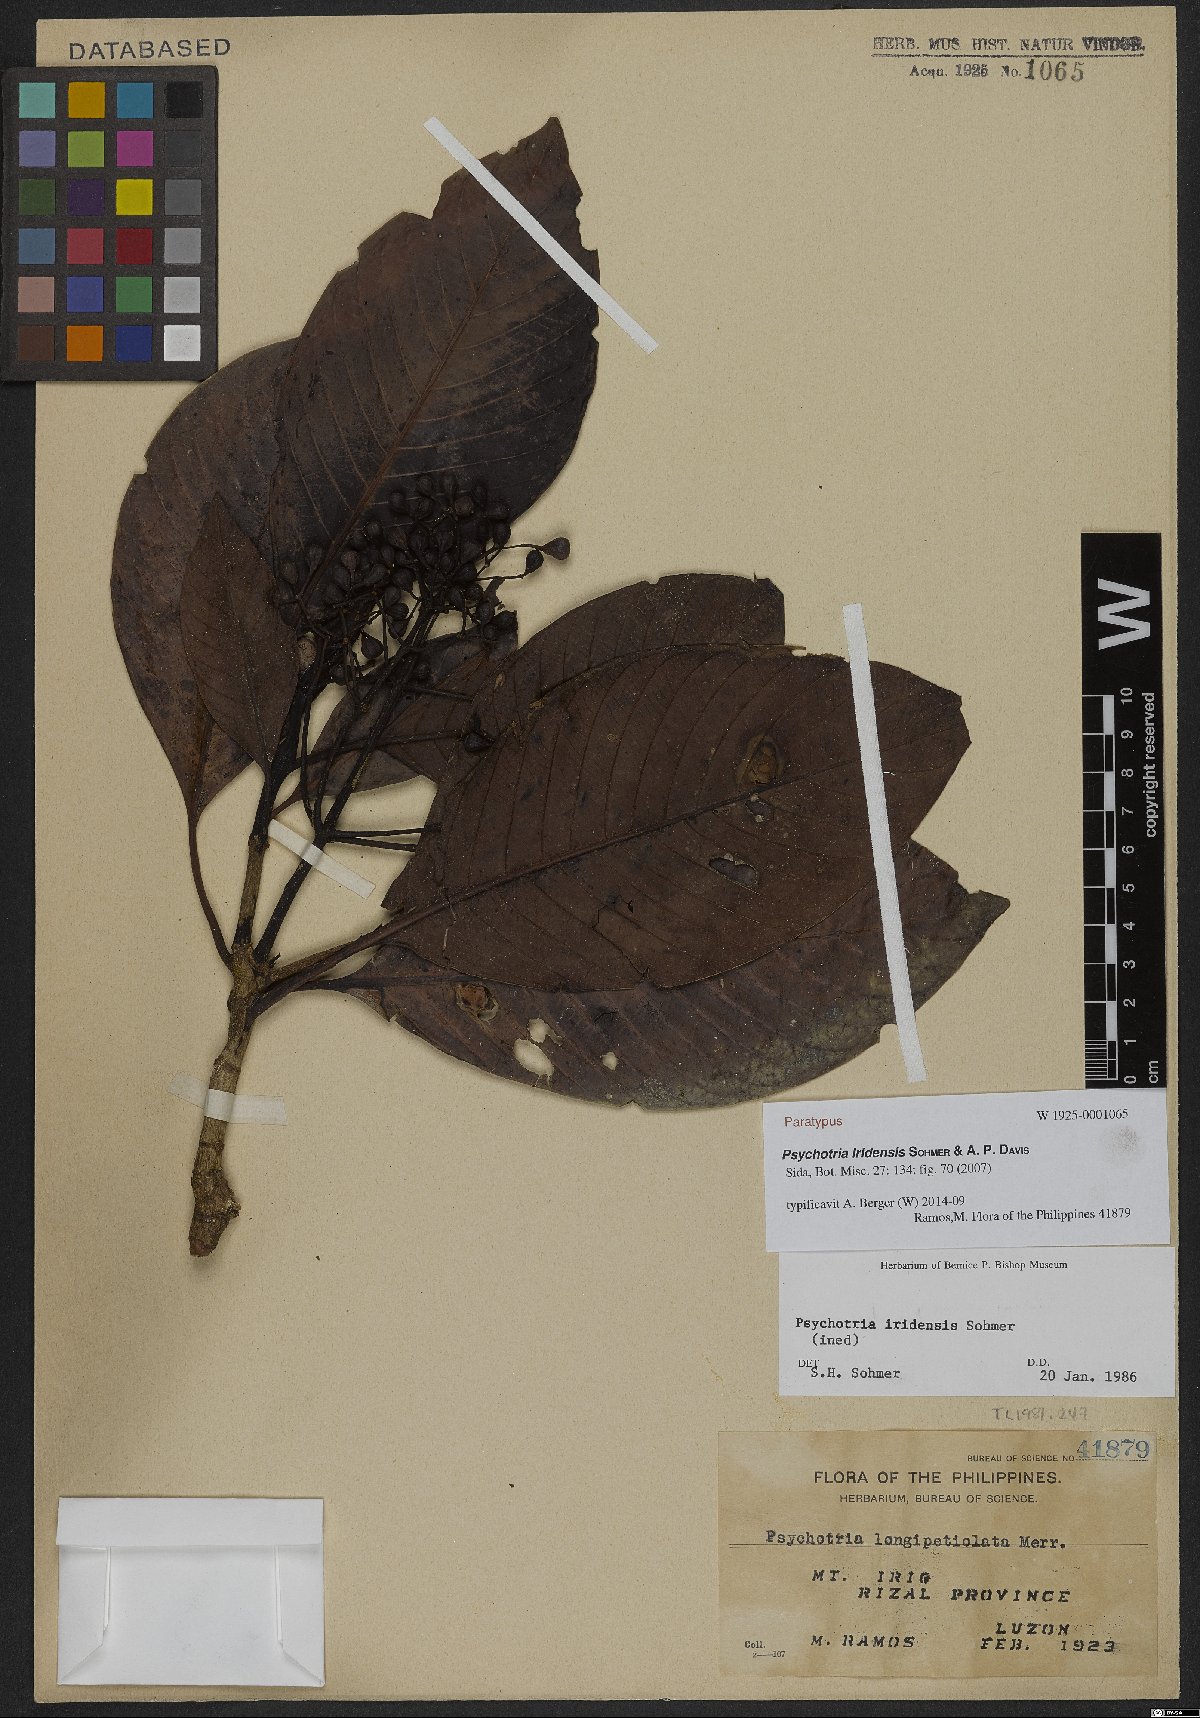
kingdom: Plantae
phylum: Tracheophyta
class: Magnoliopsida
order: Gentianales
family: Rubiaceae
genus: Psychotria
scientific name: Psychotria iridensis
